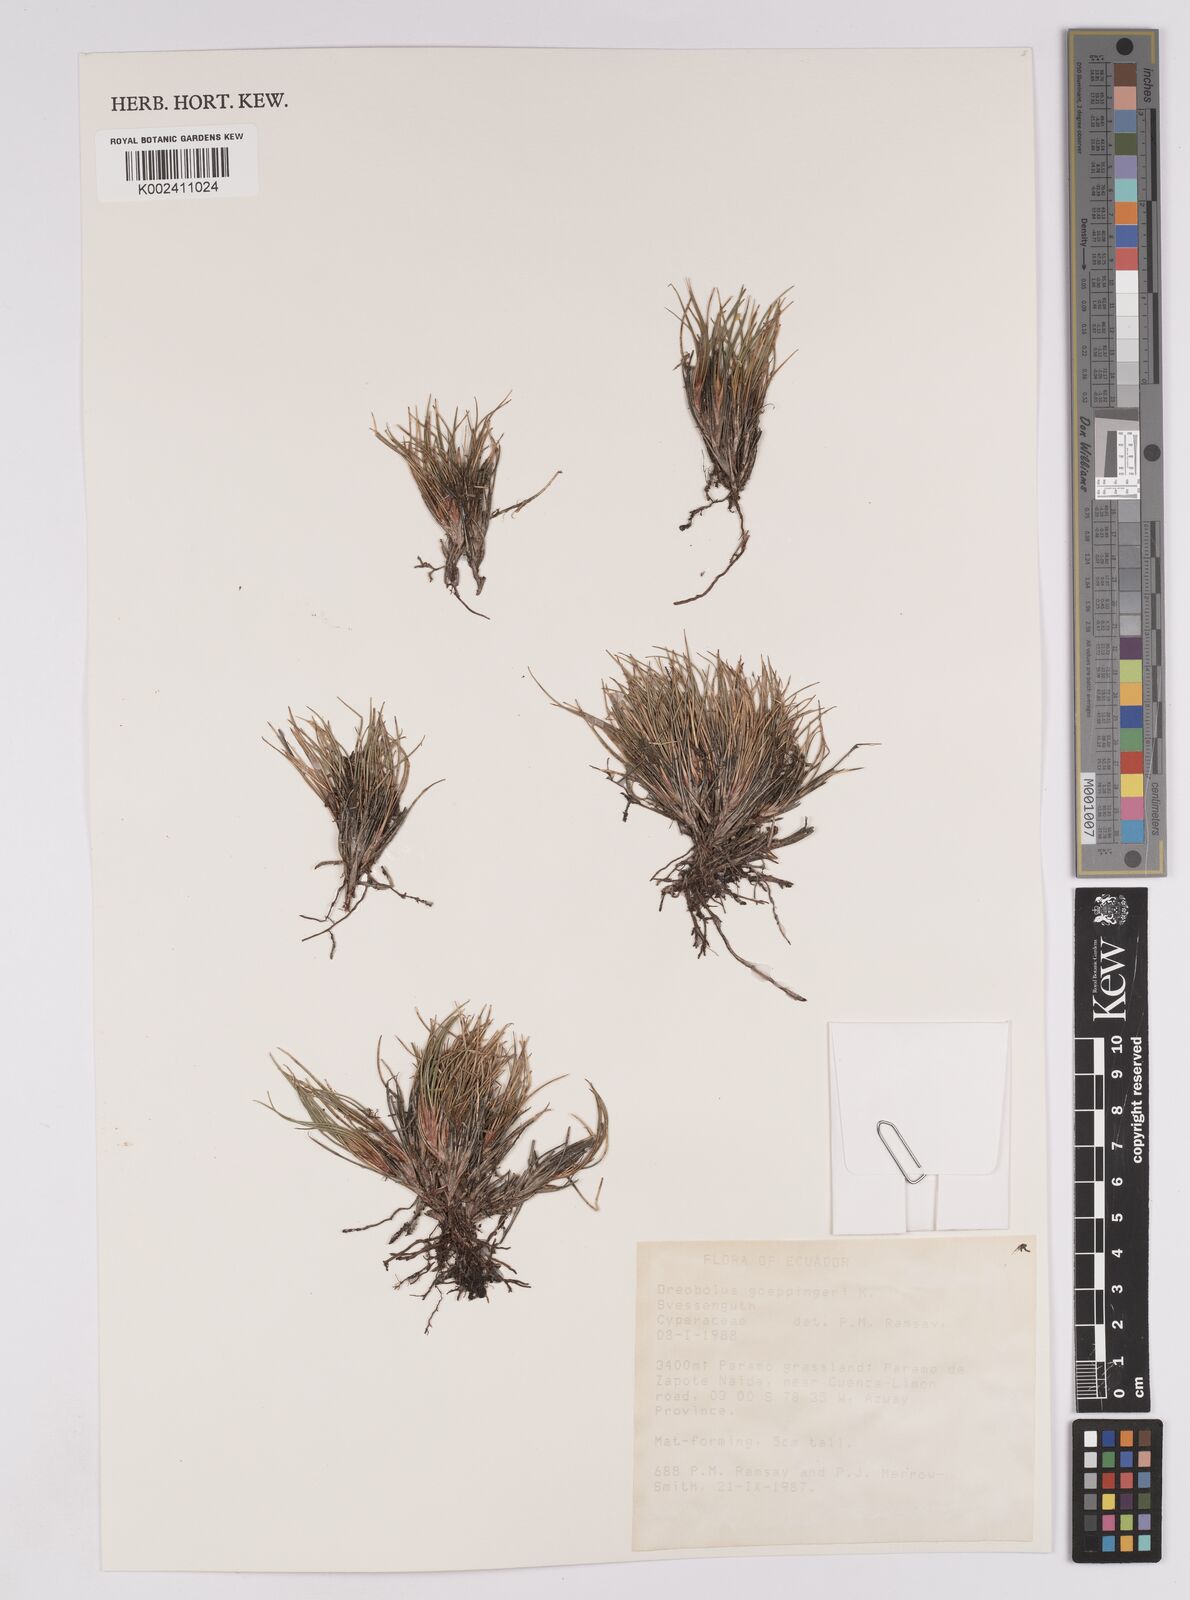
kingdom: Plantae
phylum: Tracheophyta
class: Liliopsida
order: Poales
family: Cyperaceae
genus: Oreobolus
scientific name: Oreobolus goeppingeri
